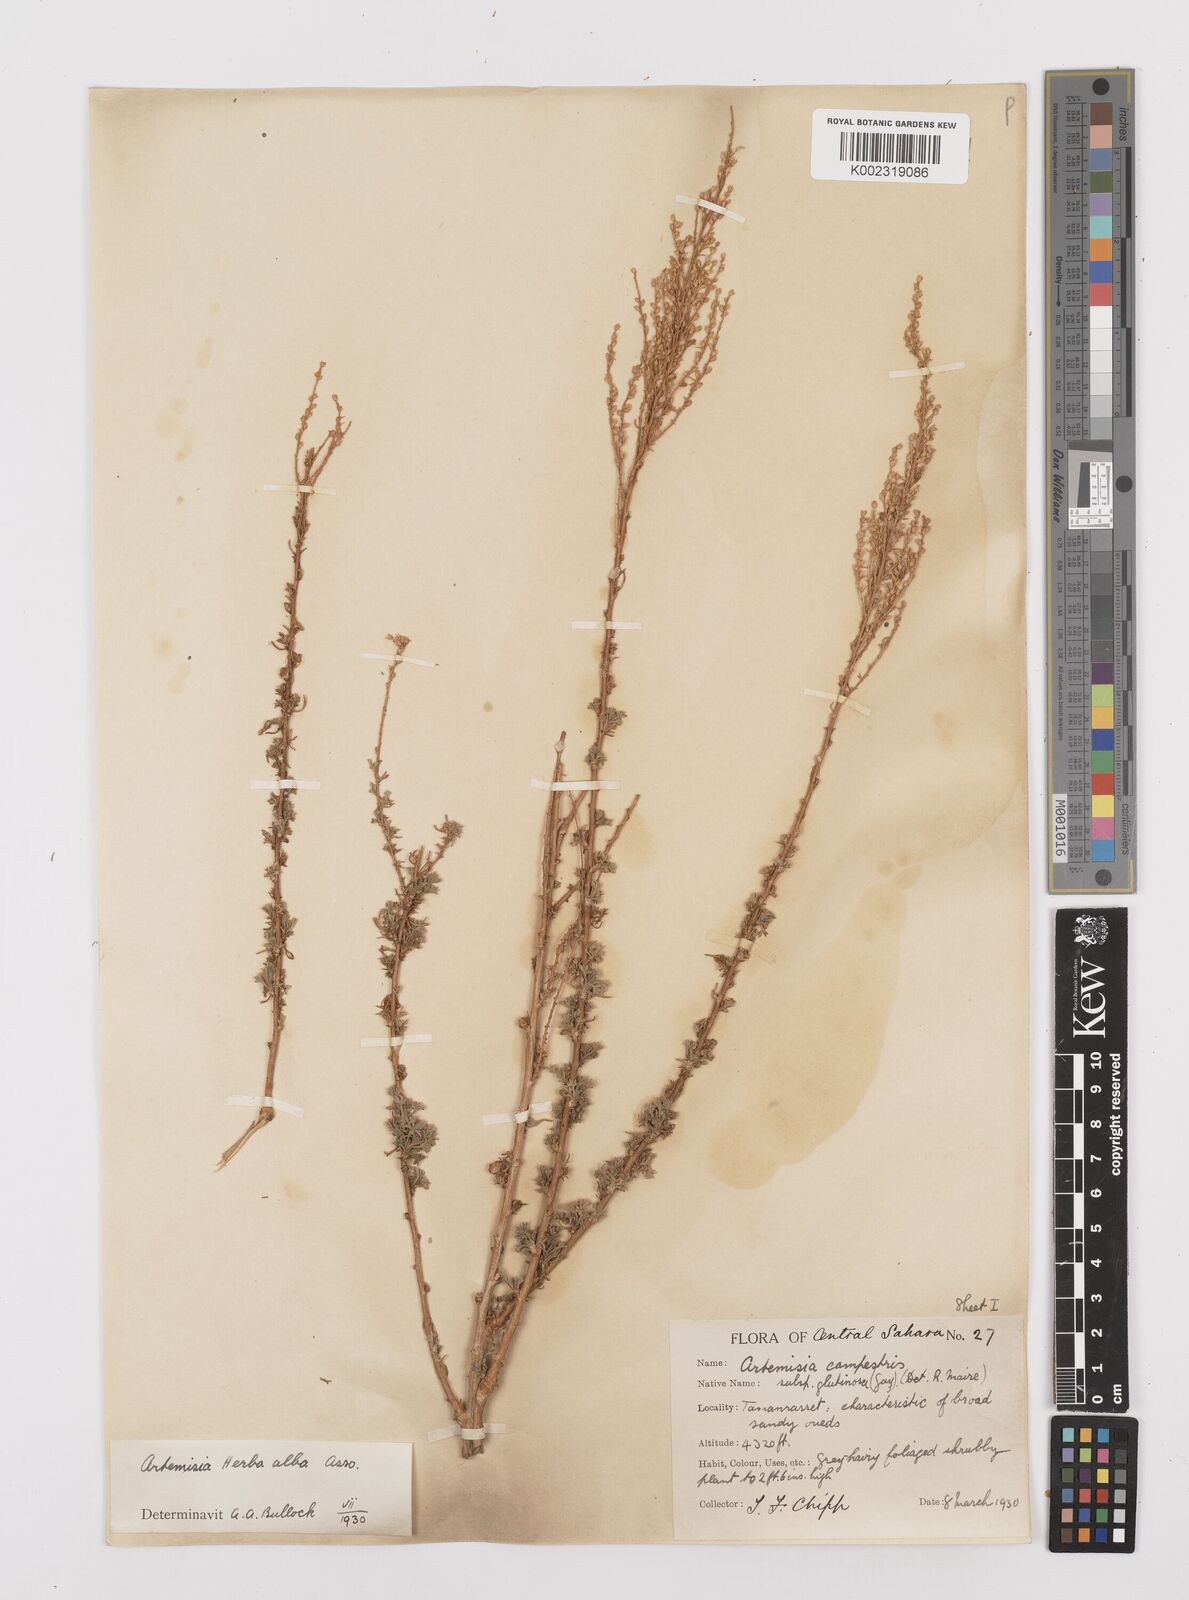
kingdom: Plantae
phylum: Tracheophyta
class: Magnoliopsida
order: Asterales
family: Asteraceae
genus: Artemisia
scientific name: Artemisia herba-alba
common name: White wormwood
